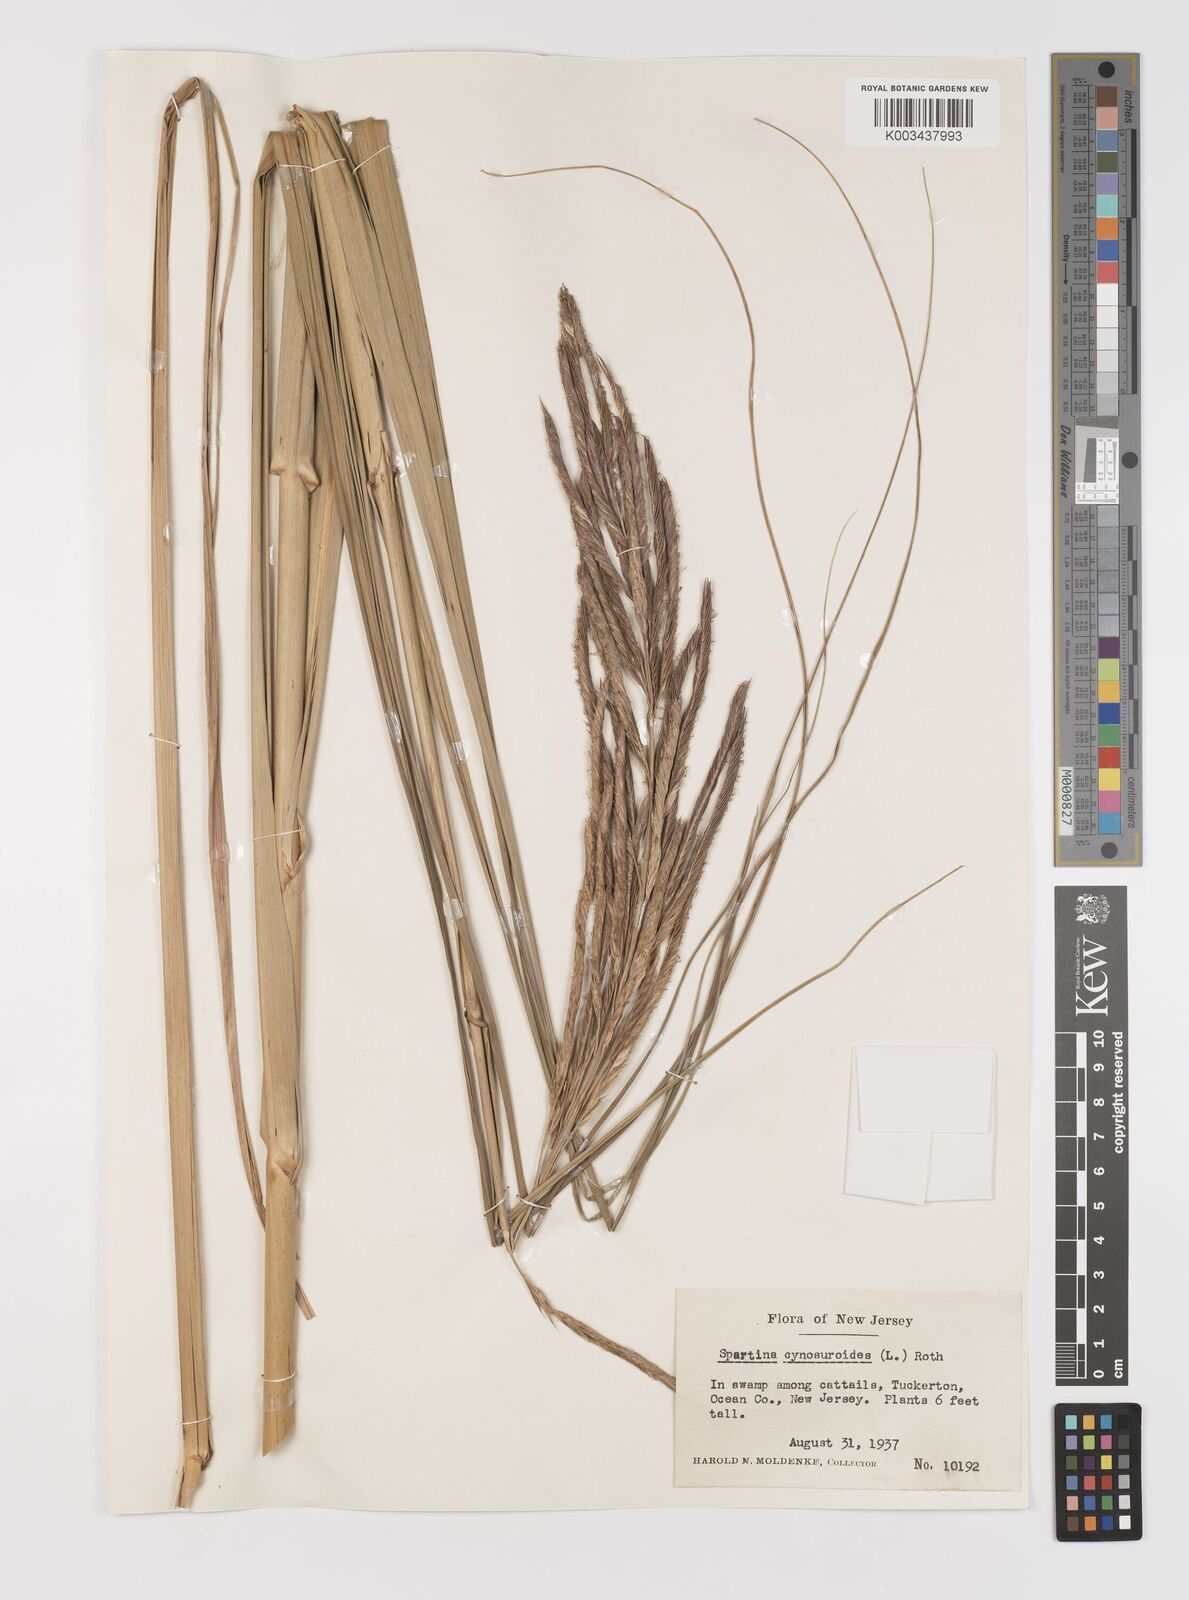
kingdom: Plantae
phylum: Tracheophyta
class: Liliopsida
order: Poales
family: Poaceae
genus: Sporobolus
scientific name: Sporobolus cynosuroides
